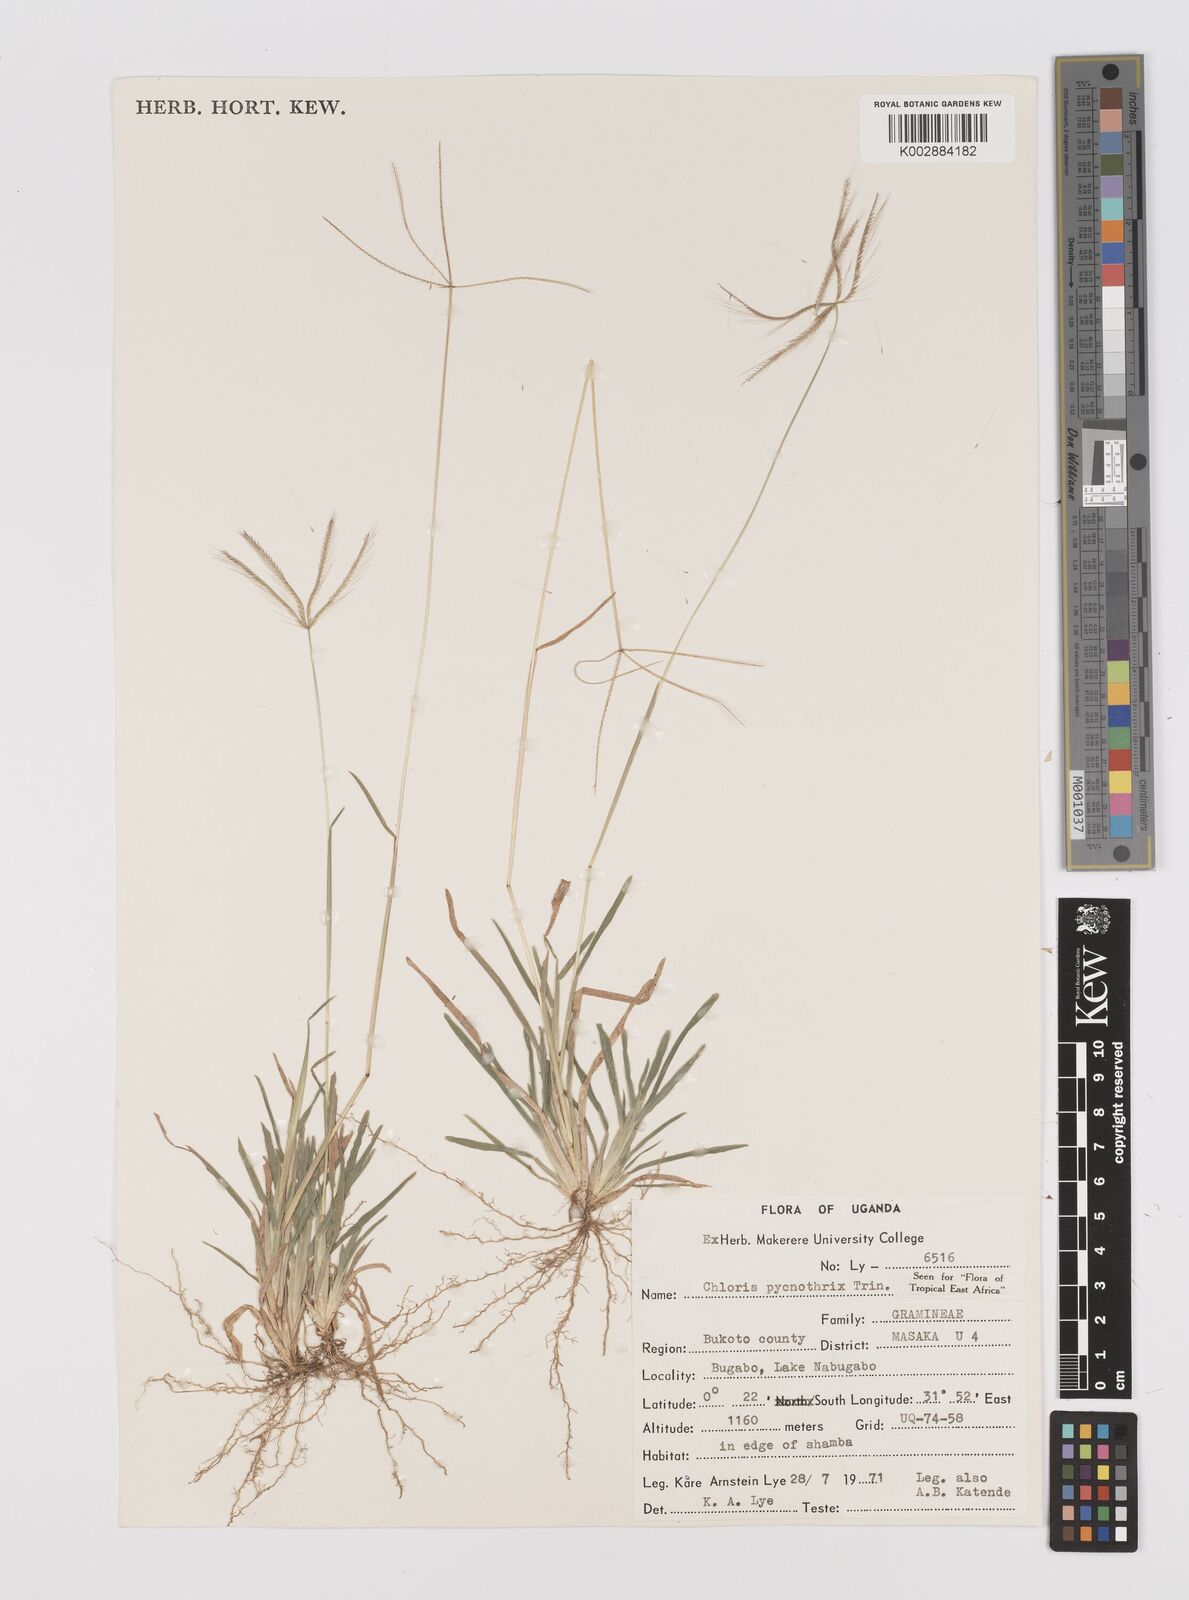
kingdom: Plantae
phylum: Tracheophyta
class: Liliopsida
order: Poales
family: Poaceae
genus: Chloris
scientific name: Chloris pycnothrix
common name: Spiderweb chloris
